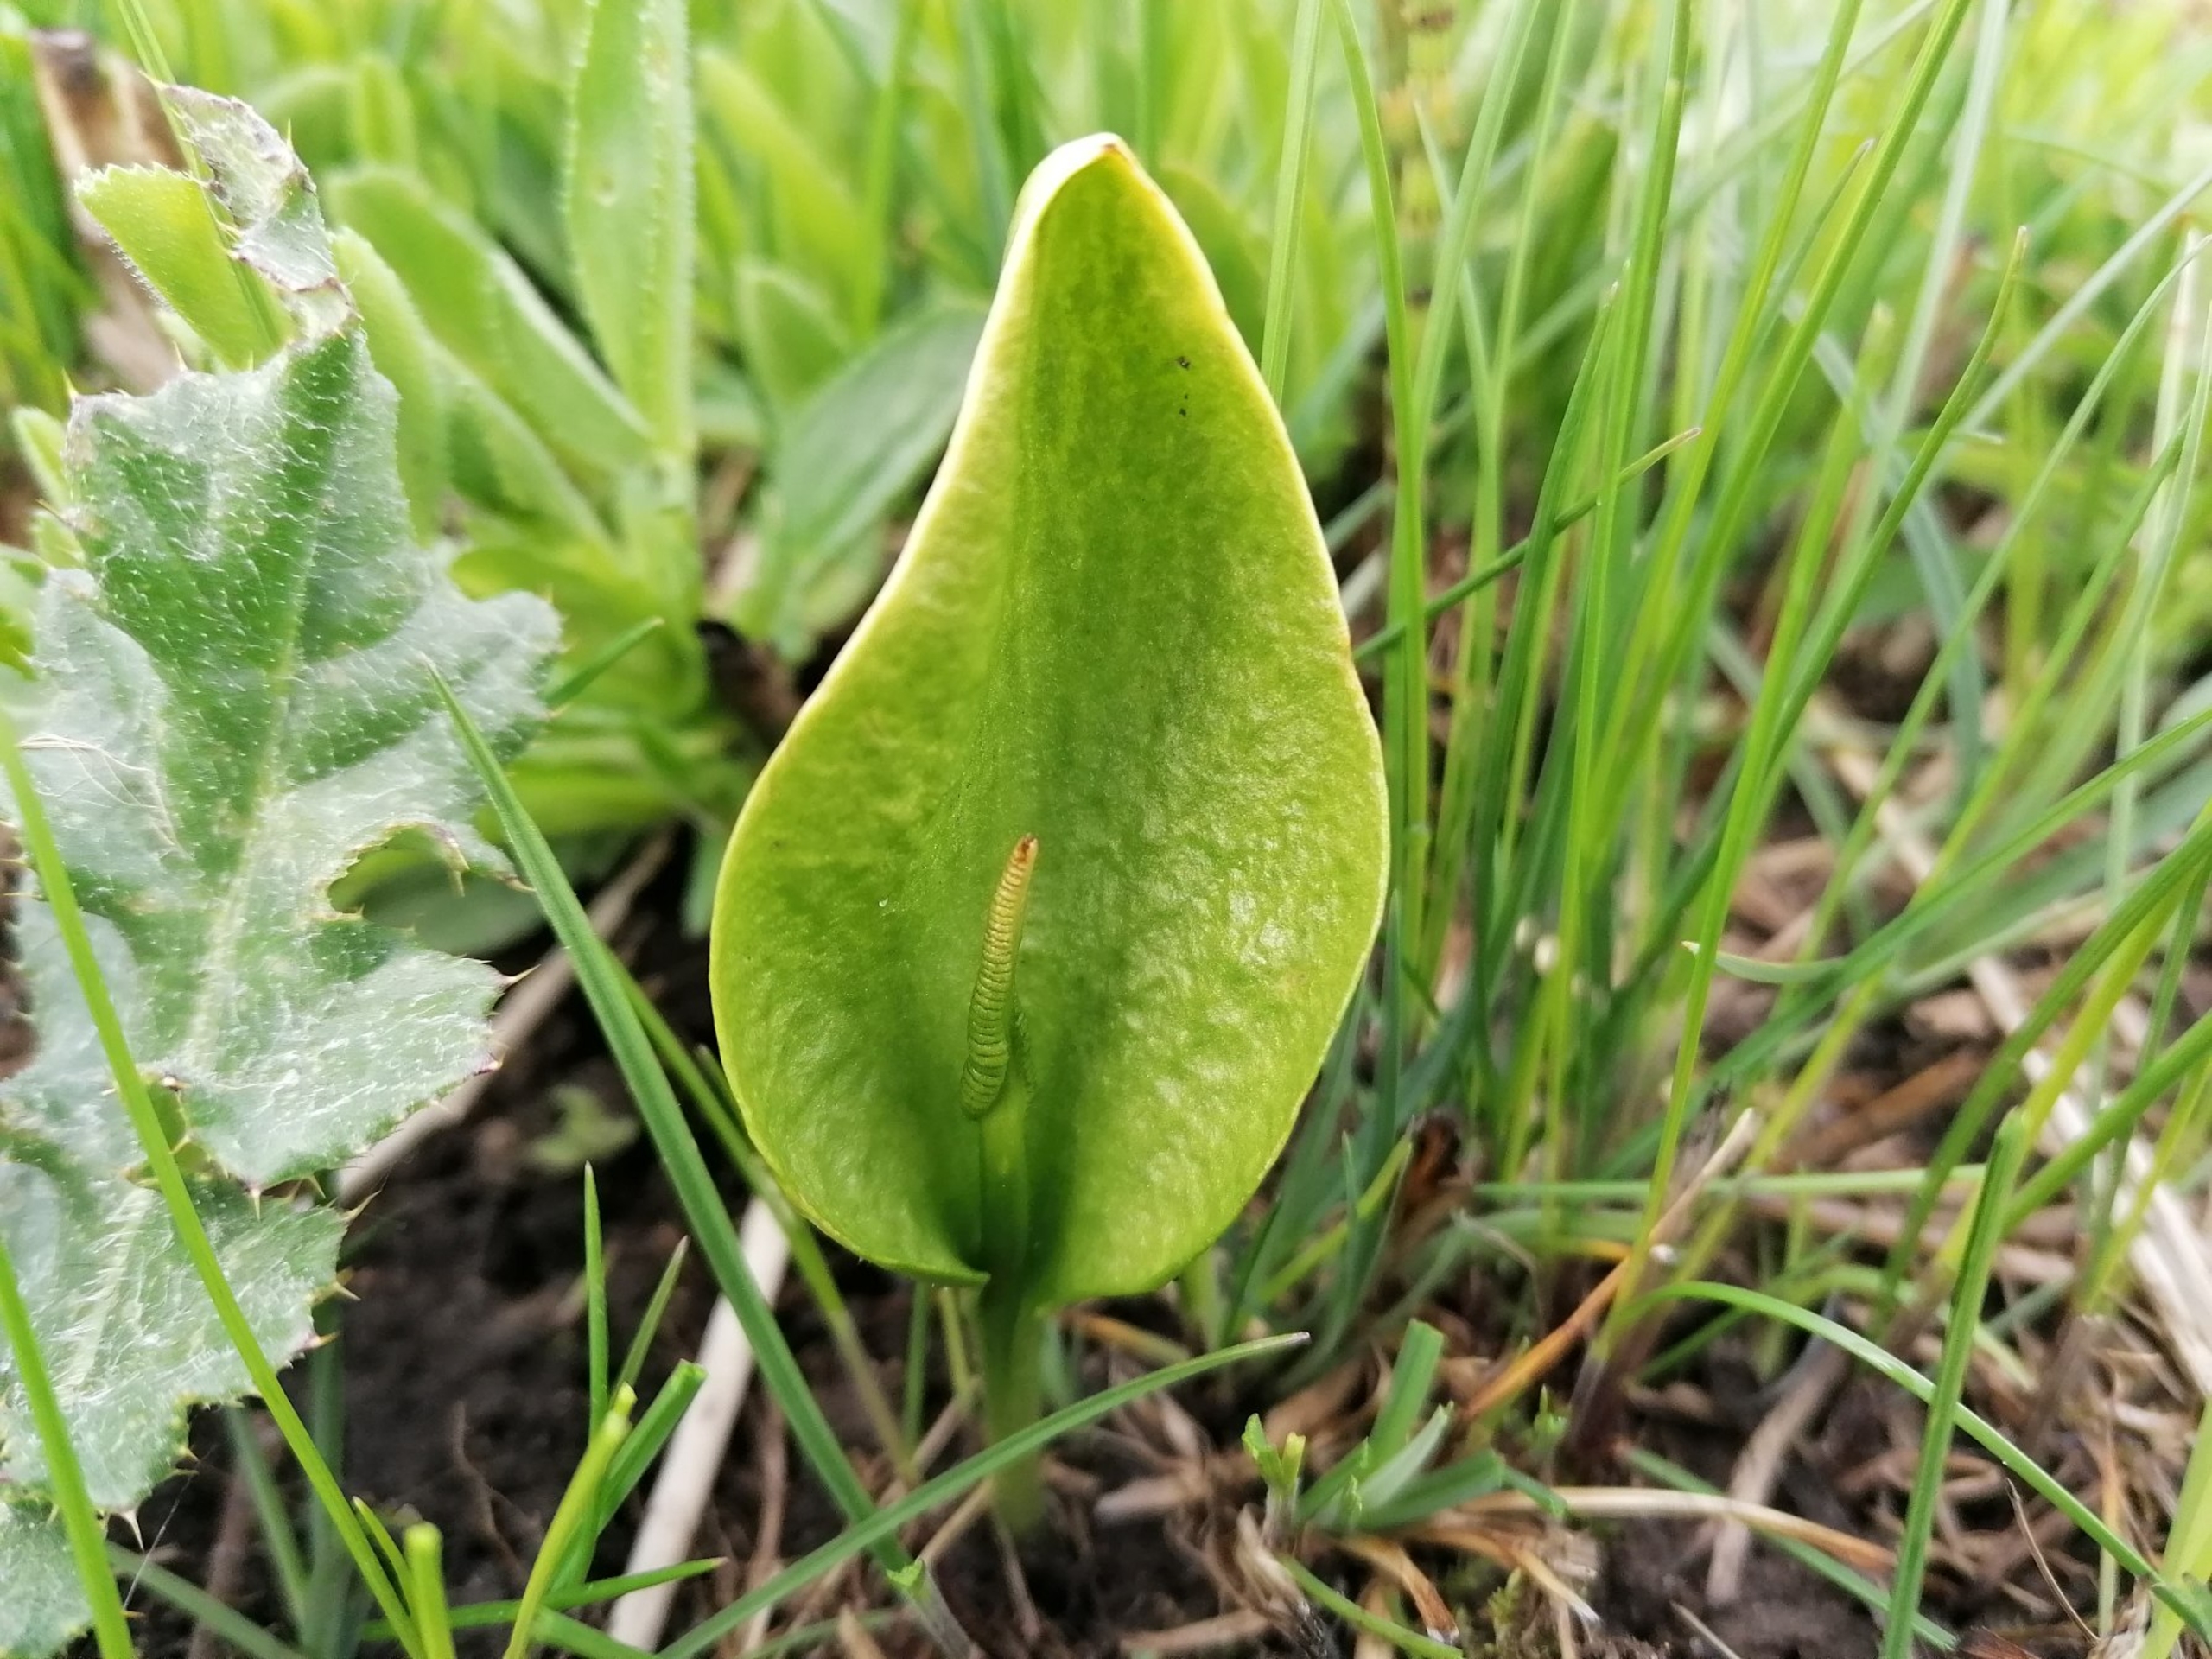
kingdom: Plantae
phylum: Tracheophyta
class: Polypodiopsida
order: Ophioglossales
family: Ophioglossaceae
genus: Ophioglossum
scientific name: Ophioglossum vulgatum
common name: Slangetunge
